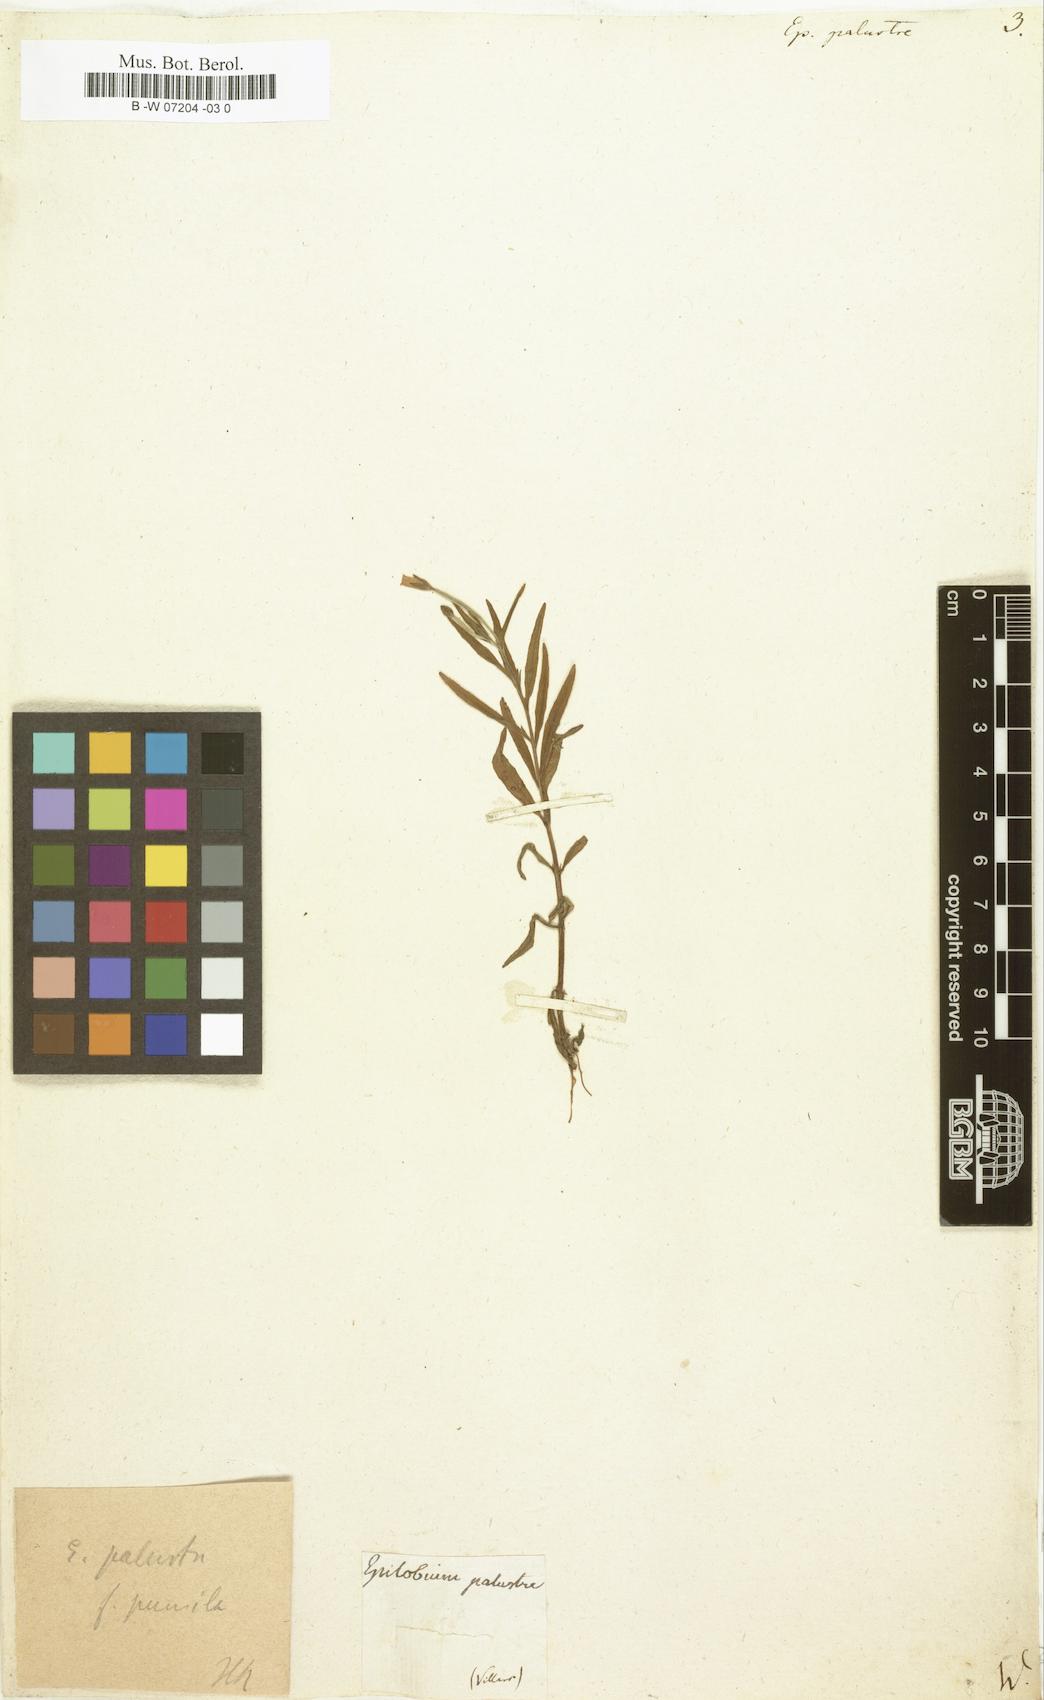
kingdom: Plantae
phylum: Tracheophyta
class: Magnoliopsida
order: Myrtales
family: Onagraceae
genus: Epilobium
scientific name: Epilobium palustre
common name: Marsh willowherb
